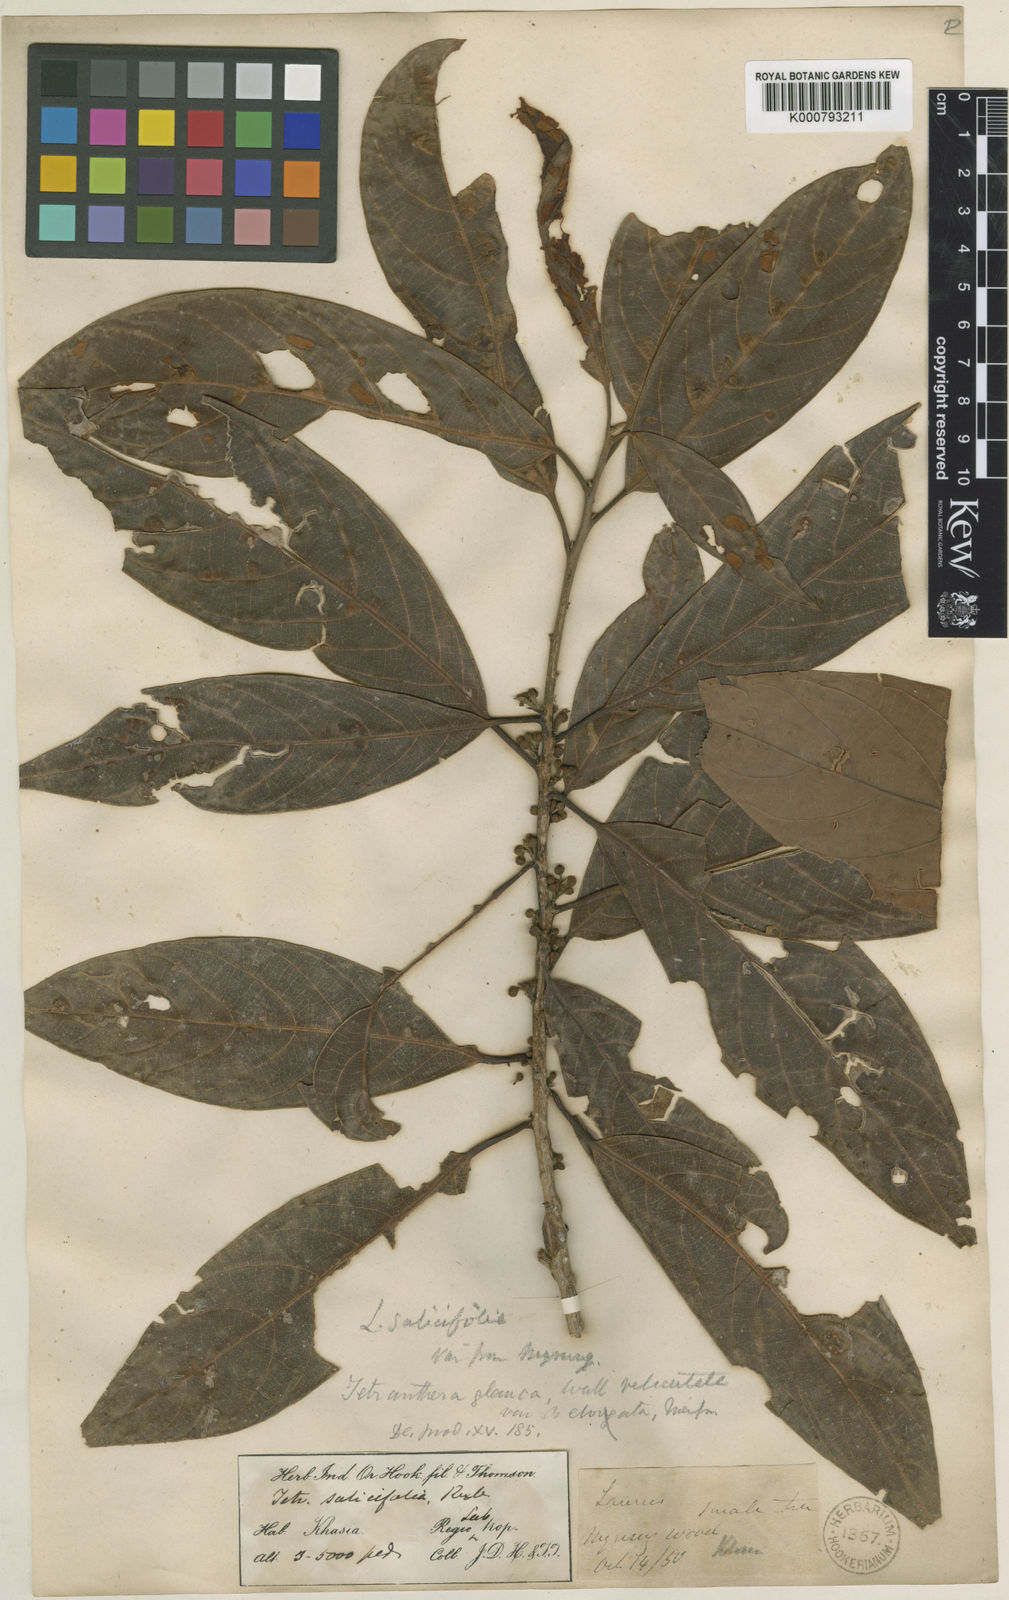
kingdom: Plantae
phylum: Tracheophyta
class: Magnoliopsida
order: Laurales
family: Lauraceae
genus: Litsea
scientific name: Litsea salicifolia
